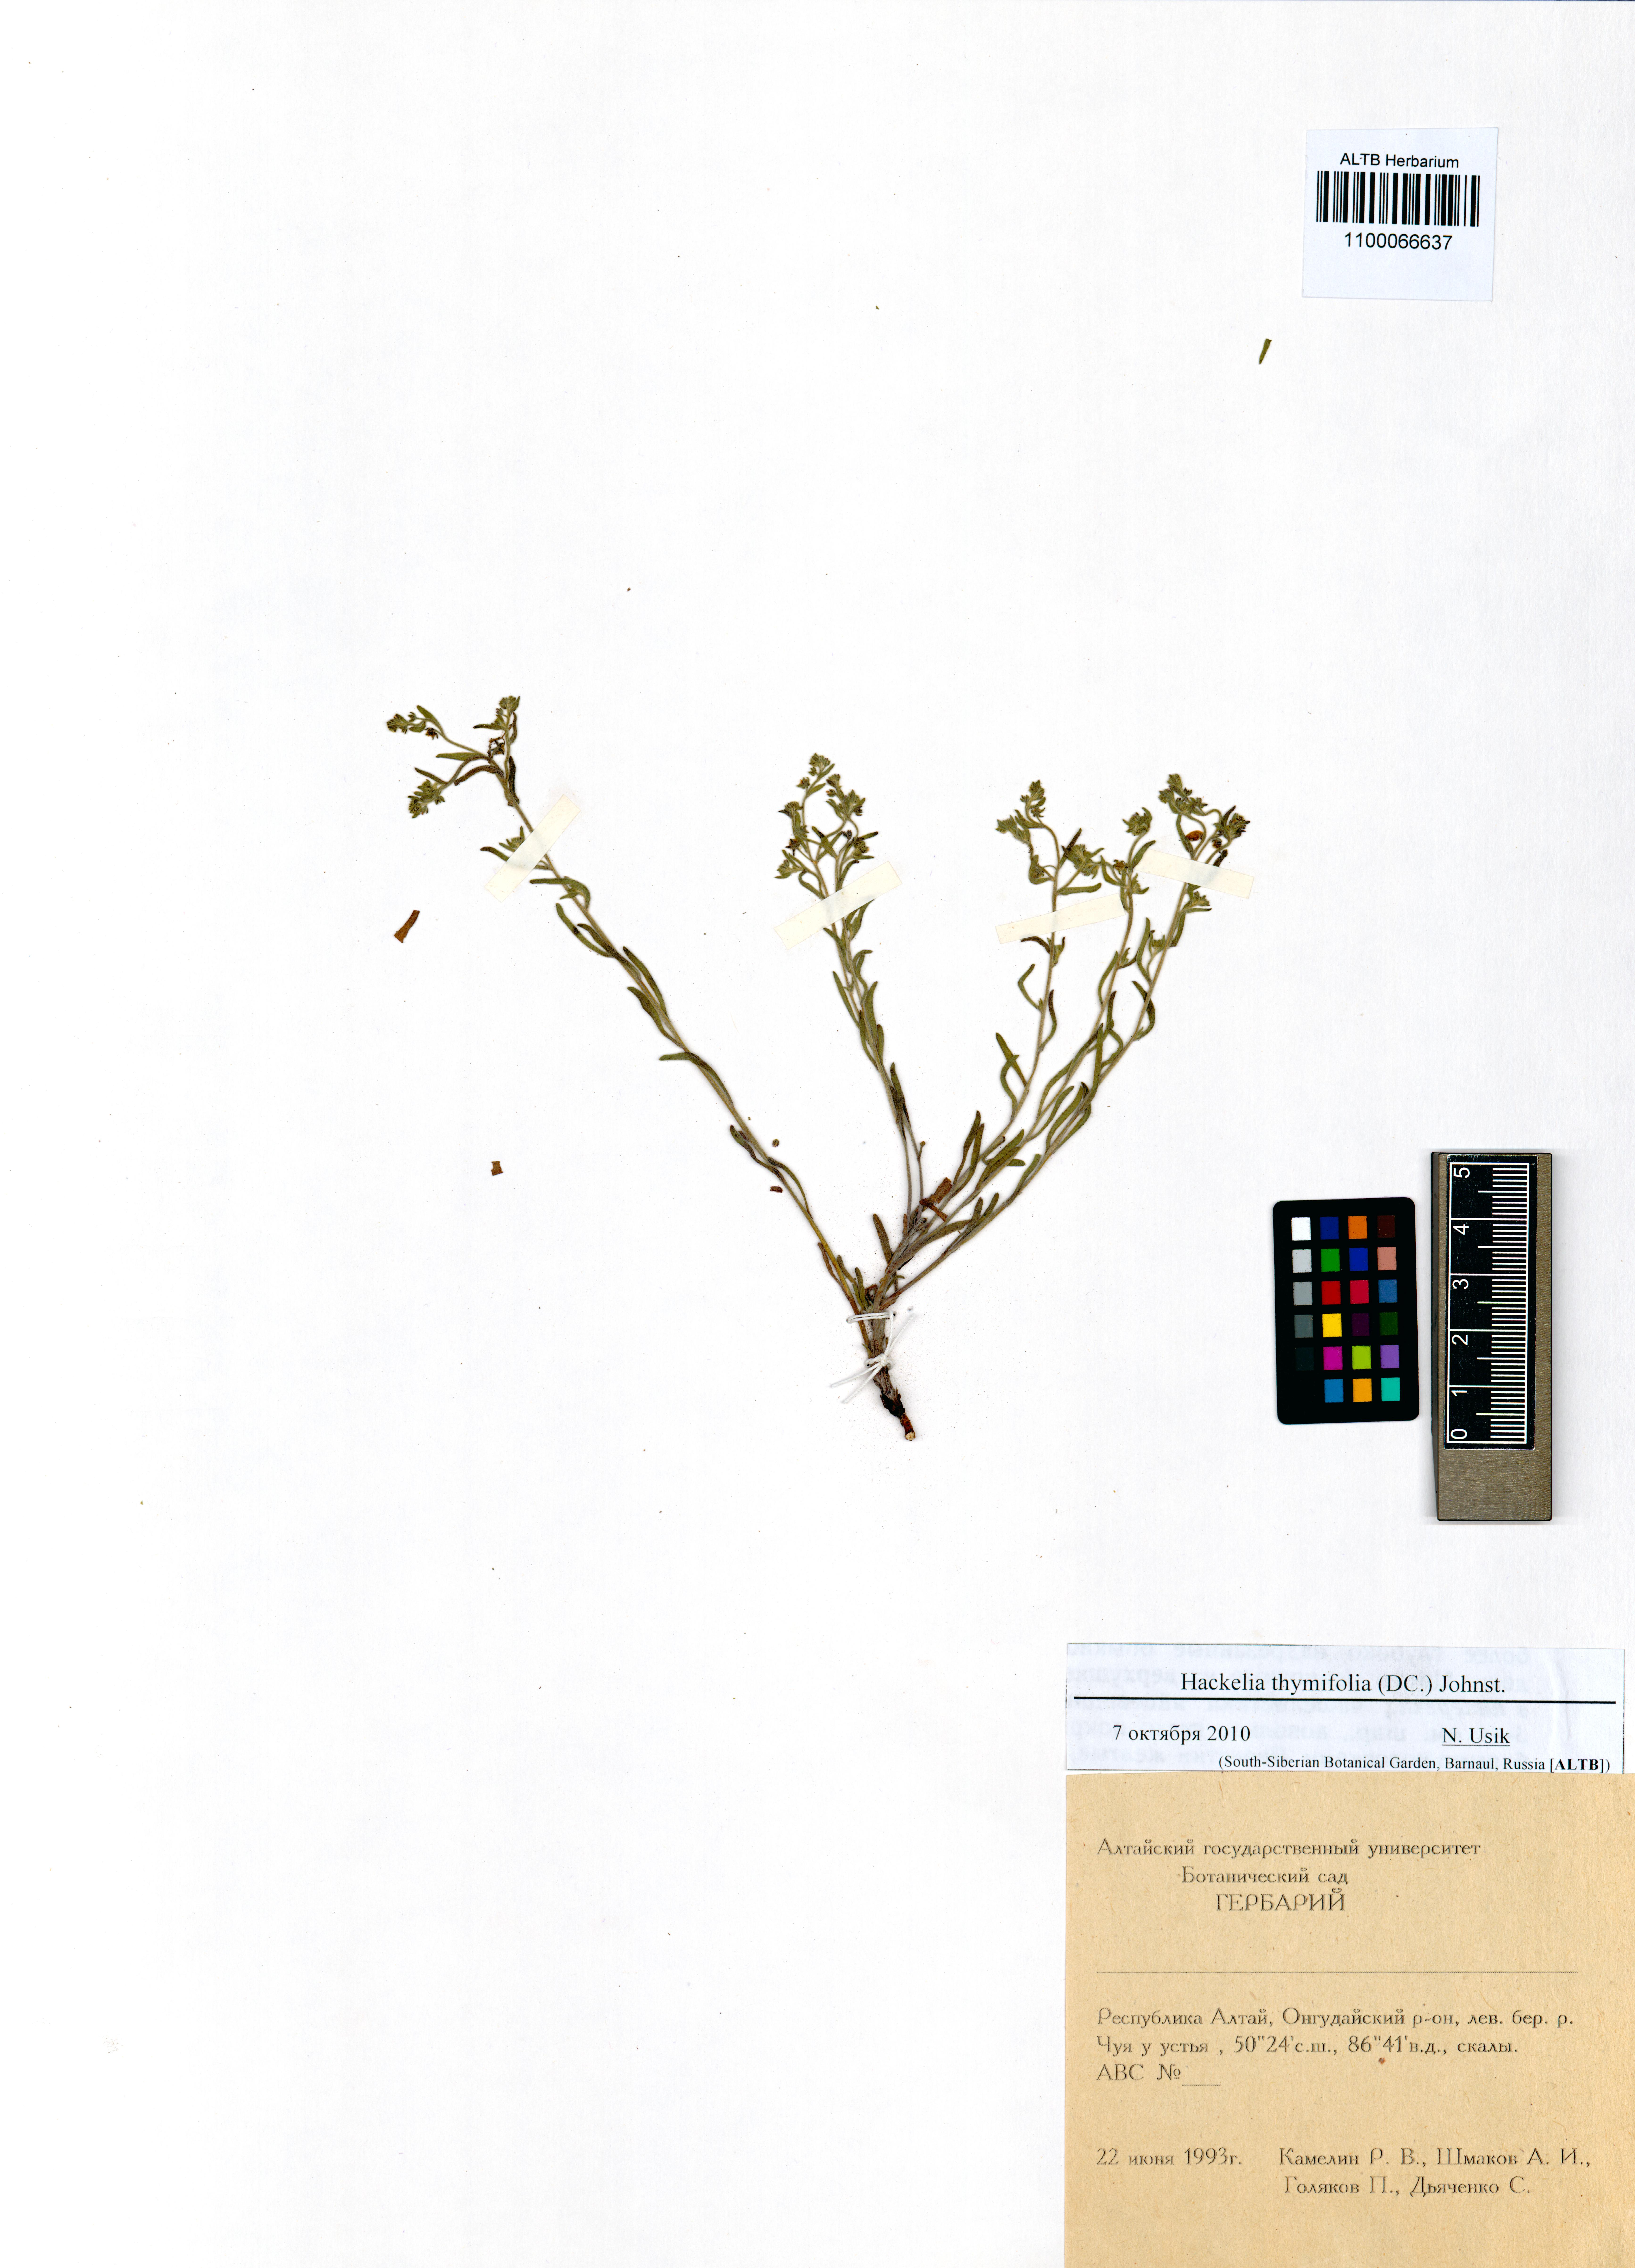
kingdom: Plantae
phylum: Tracheophyta
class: Magnoliopsida
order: Boraginales
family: Boraginaceae
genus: Eritrichium
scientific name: Eritrichium thymifolium
